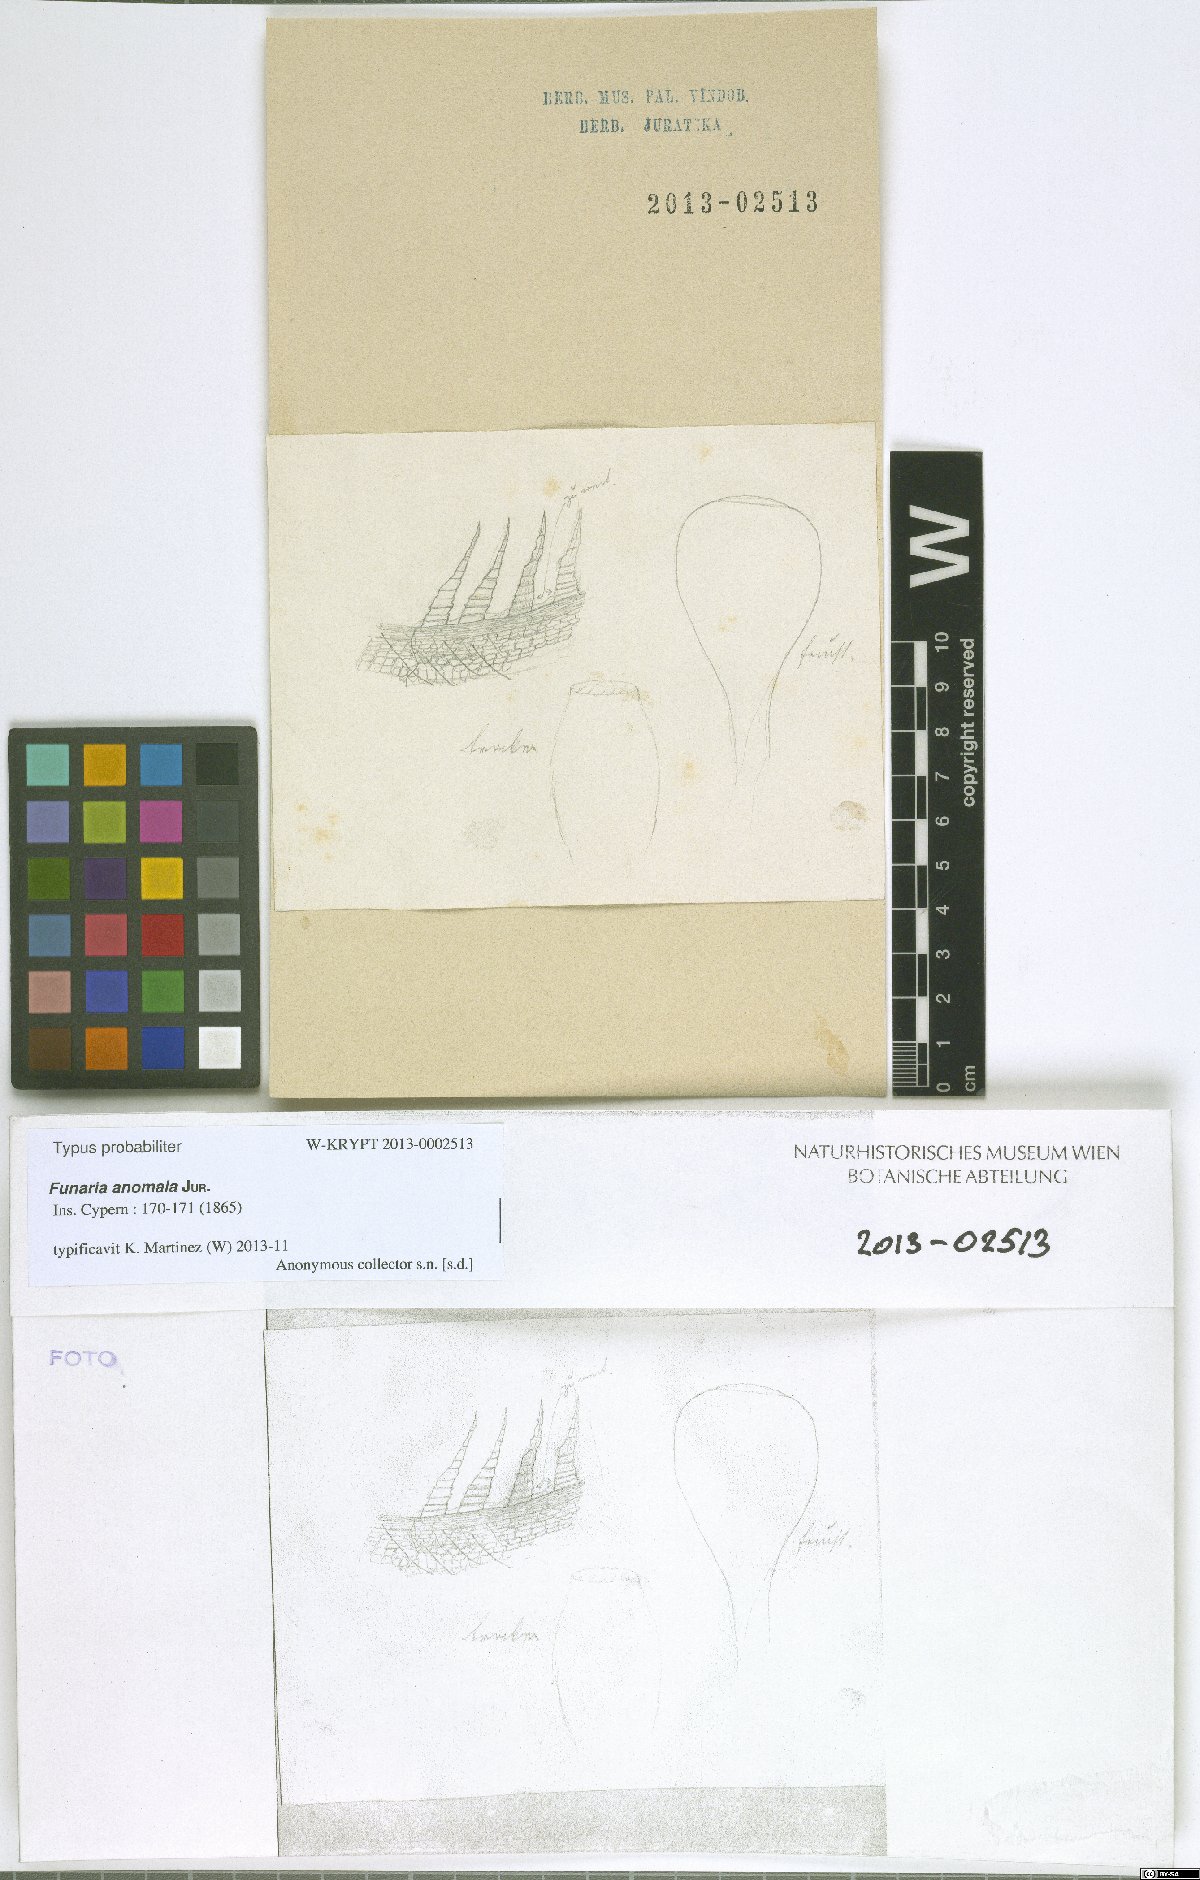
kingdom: Plantae
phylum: Bryophyta
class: Bryopsida
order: Funariales
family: Funariaceae
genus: Funaria
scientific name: Funaria anomala
